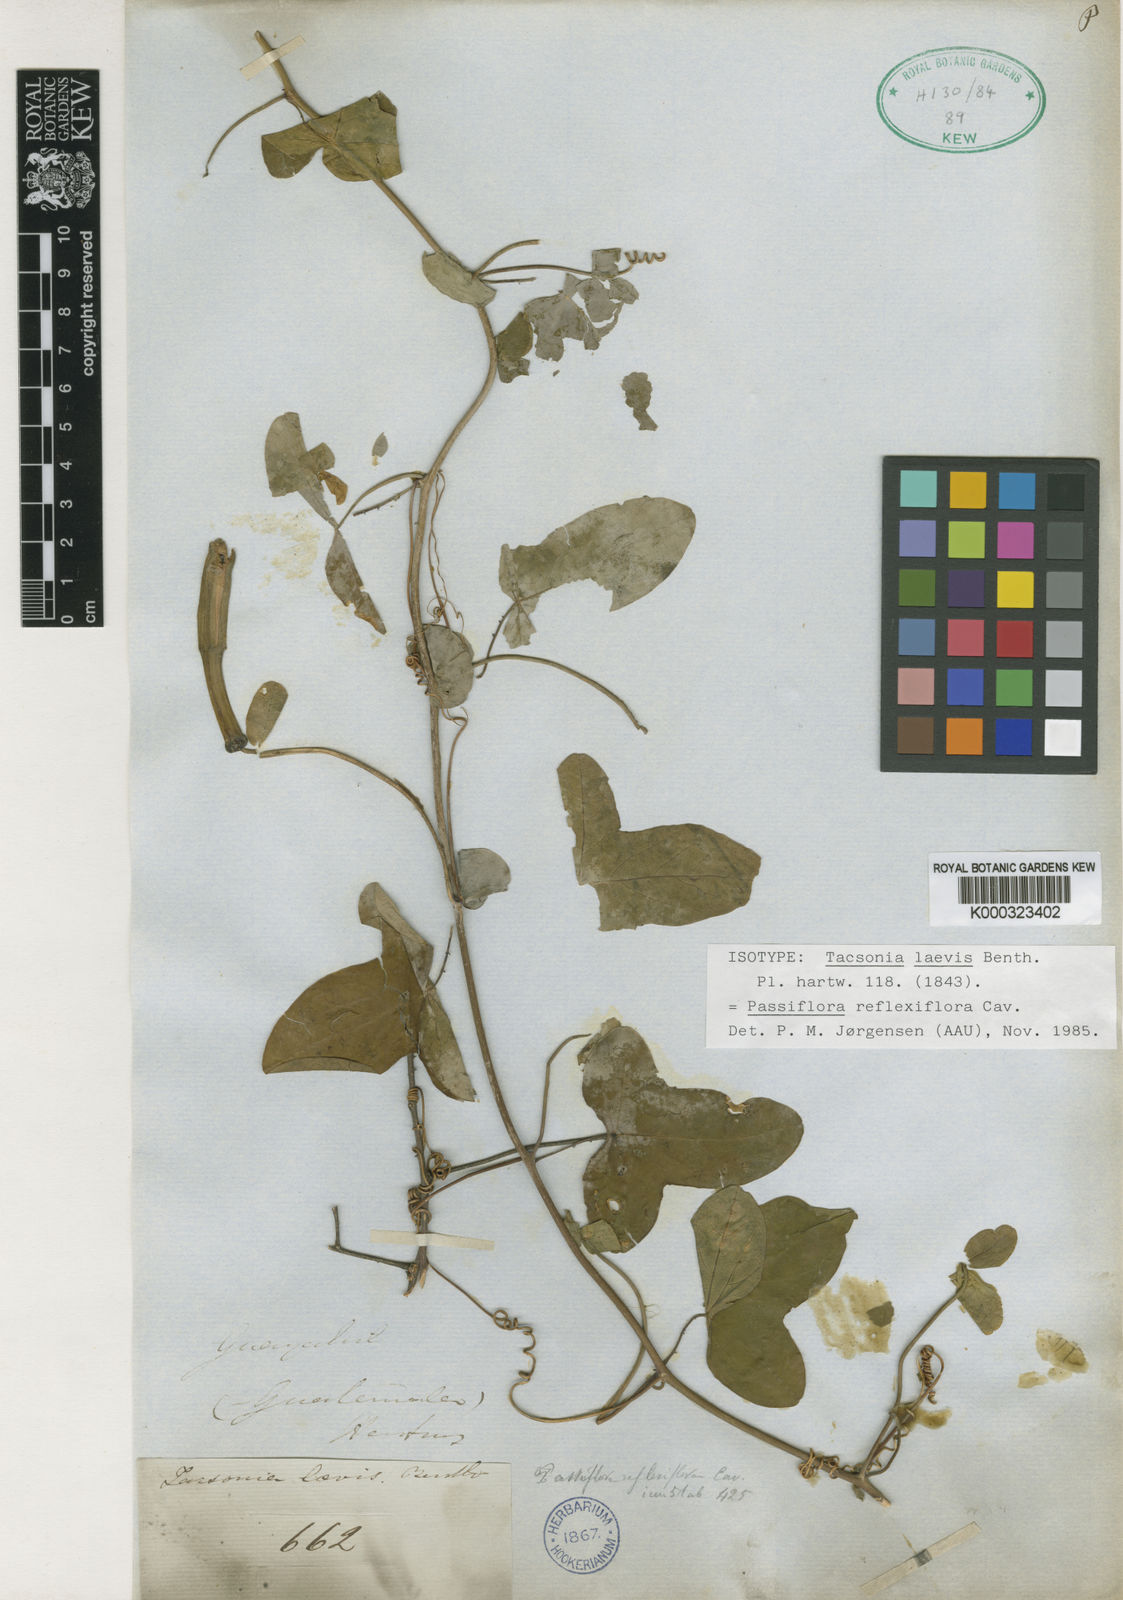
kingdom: Plantae
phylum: Tracheophyta
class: Magnoliopsida
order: Malpighiales
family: Passifloraceae
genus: Passiflora
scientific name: Passiflora reflexiflora
